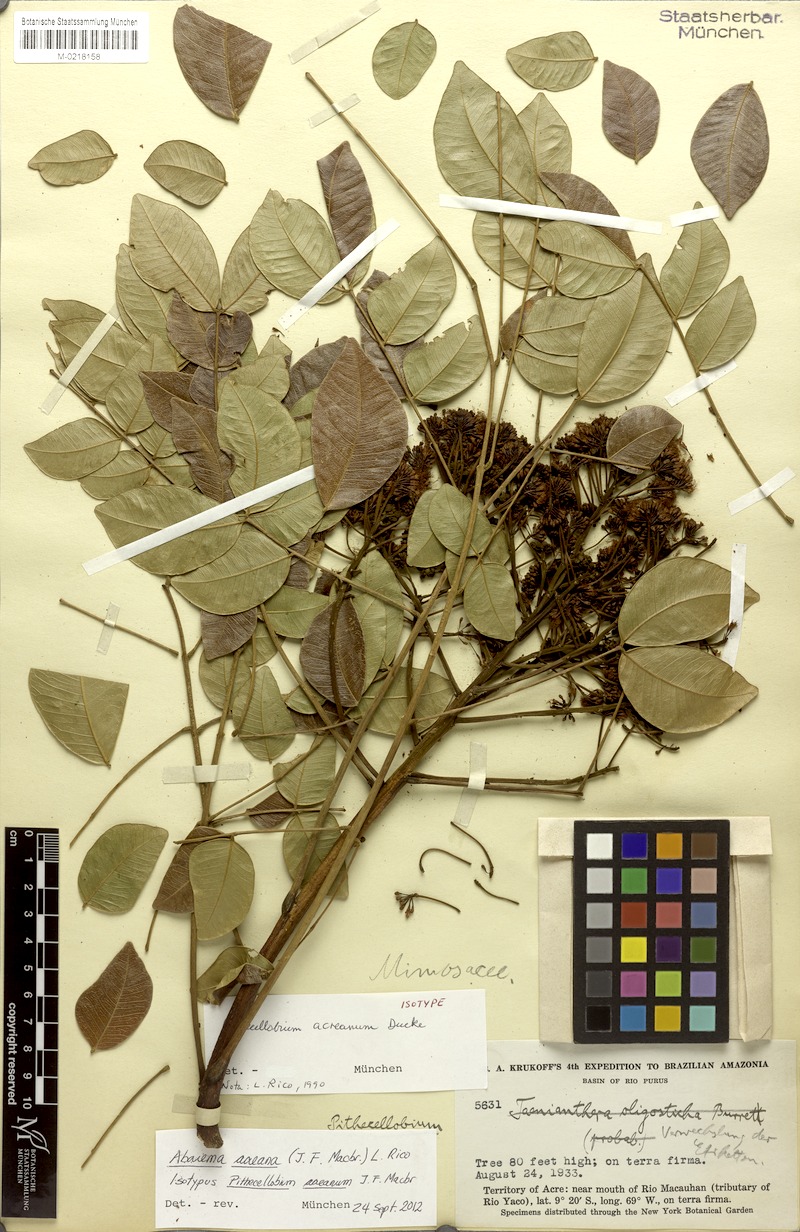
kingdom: Plantae
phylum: Tracheophyta
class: Magnoliopsida
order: Fabales
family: Fabaceae
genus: Hydrochorea
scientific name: Hydrochorea acreana
